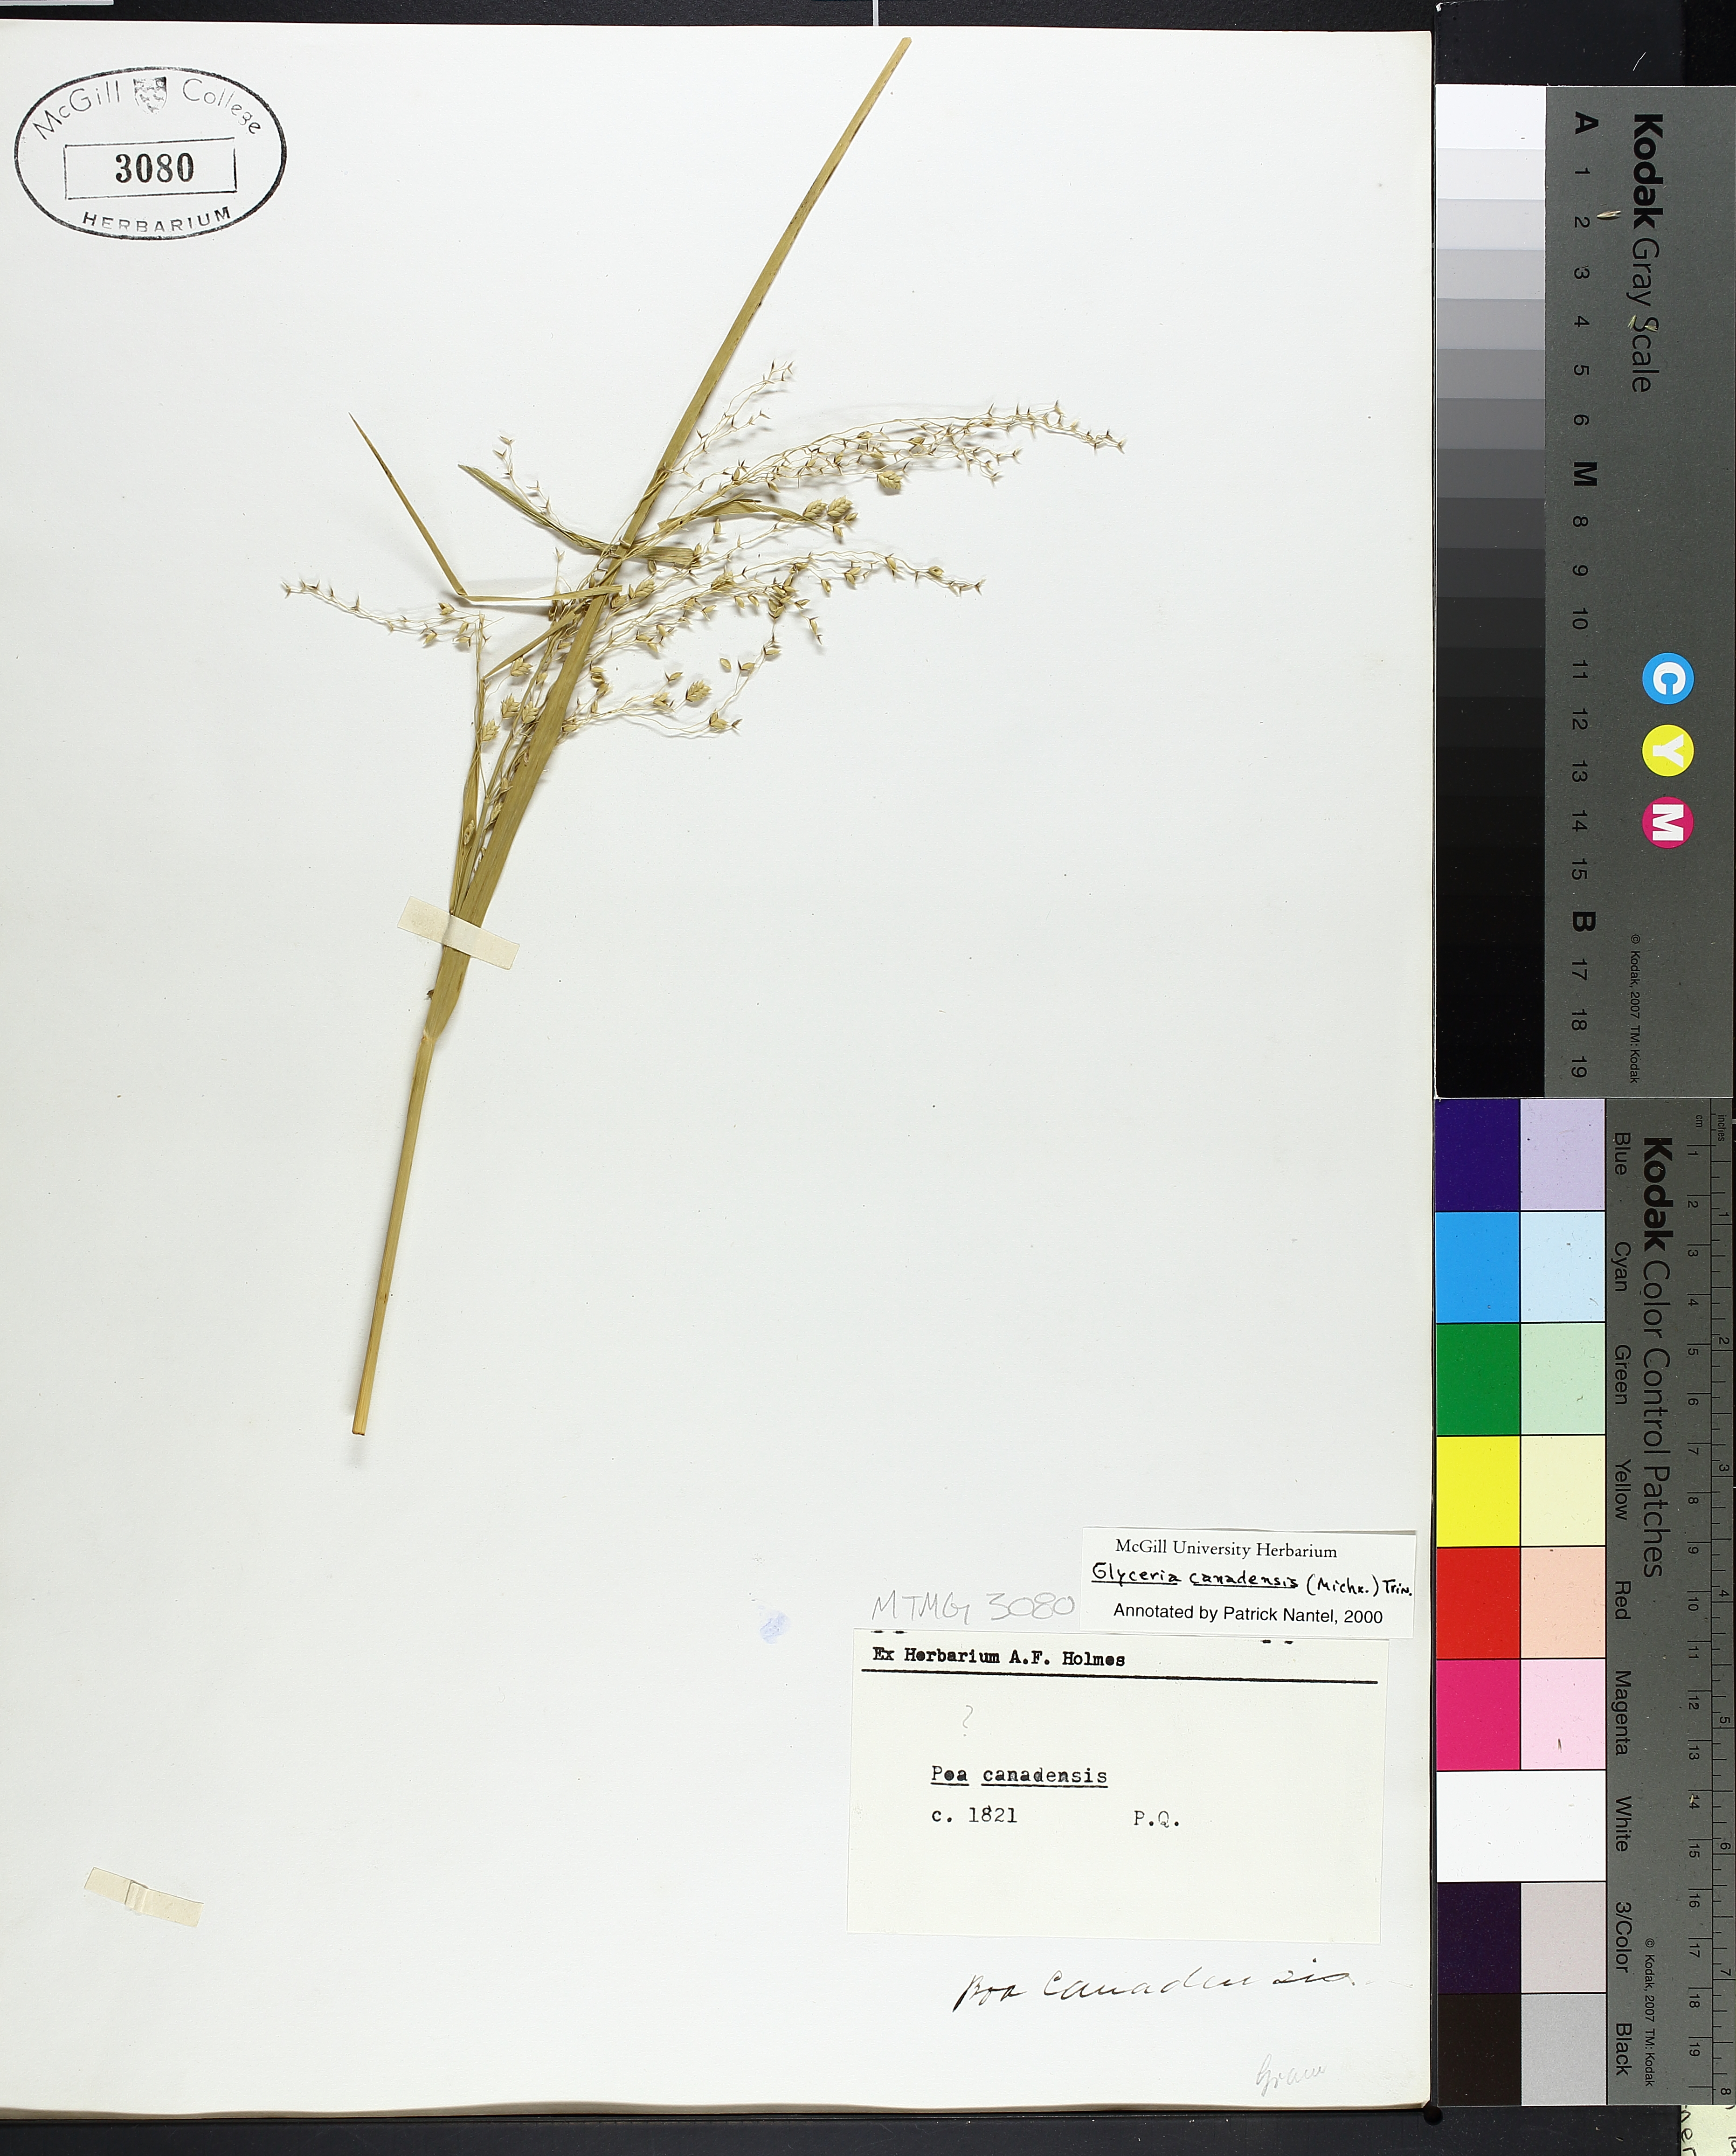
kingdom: Plantae
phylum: Tracheophyta
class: Liliopsida
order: Poales
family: Poaceae
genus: Glyceria
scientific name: Glyceria canadensis
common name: Canada mannagrass
